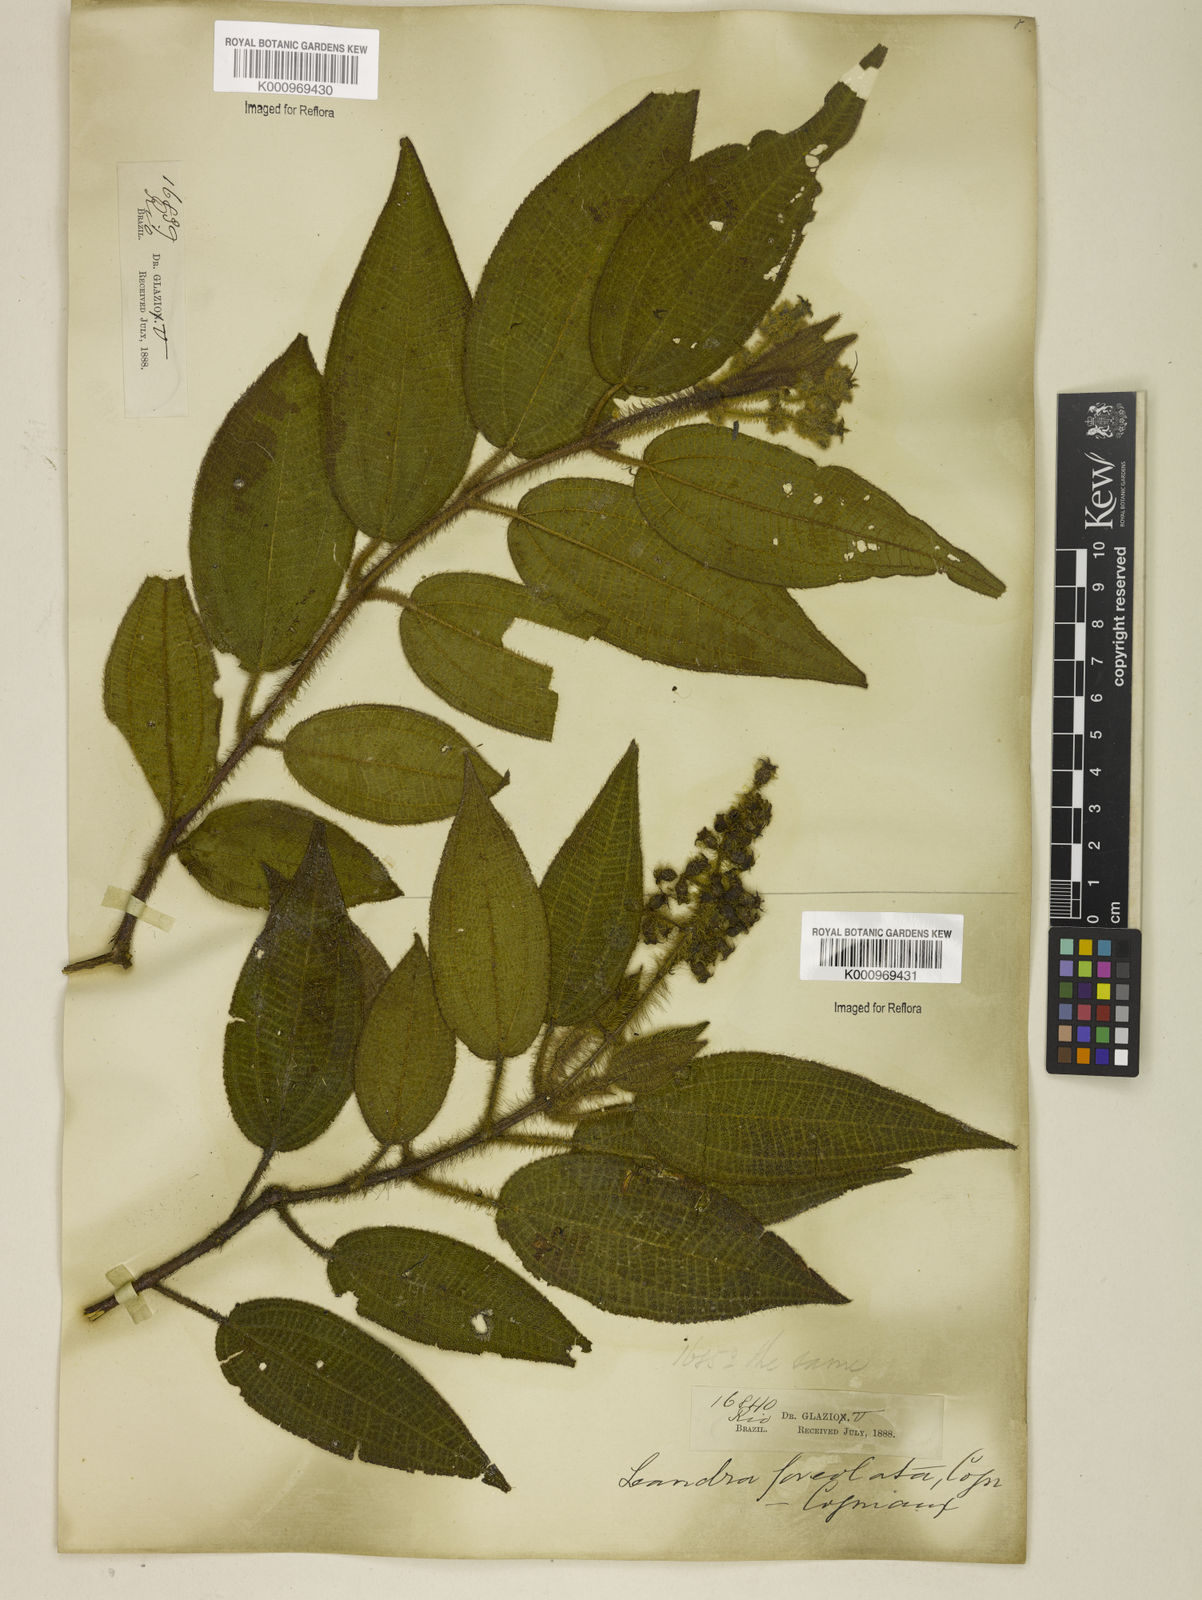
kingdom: Plantae
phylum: Tracheophyta
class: Magnoliopsida
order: Myrtales
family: Melastomataceae
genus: Miconia
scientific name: Miconia leafoveolata
